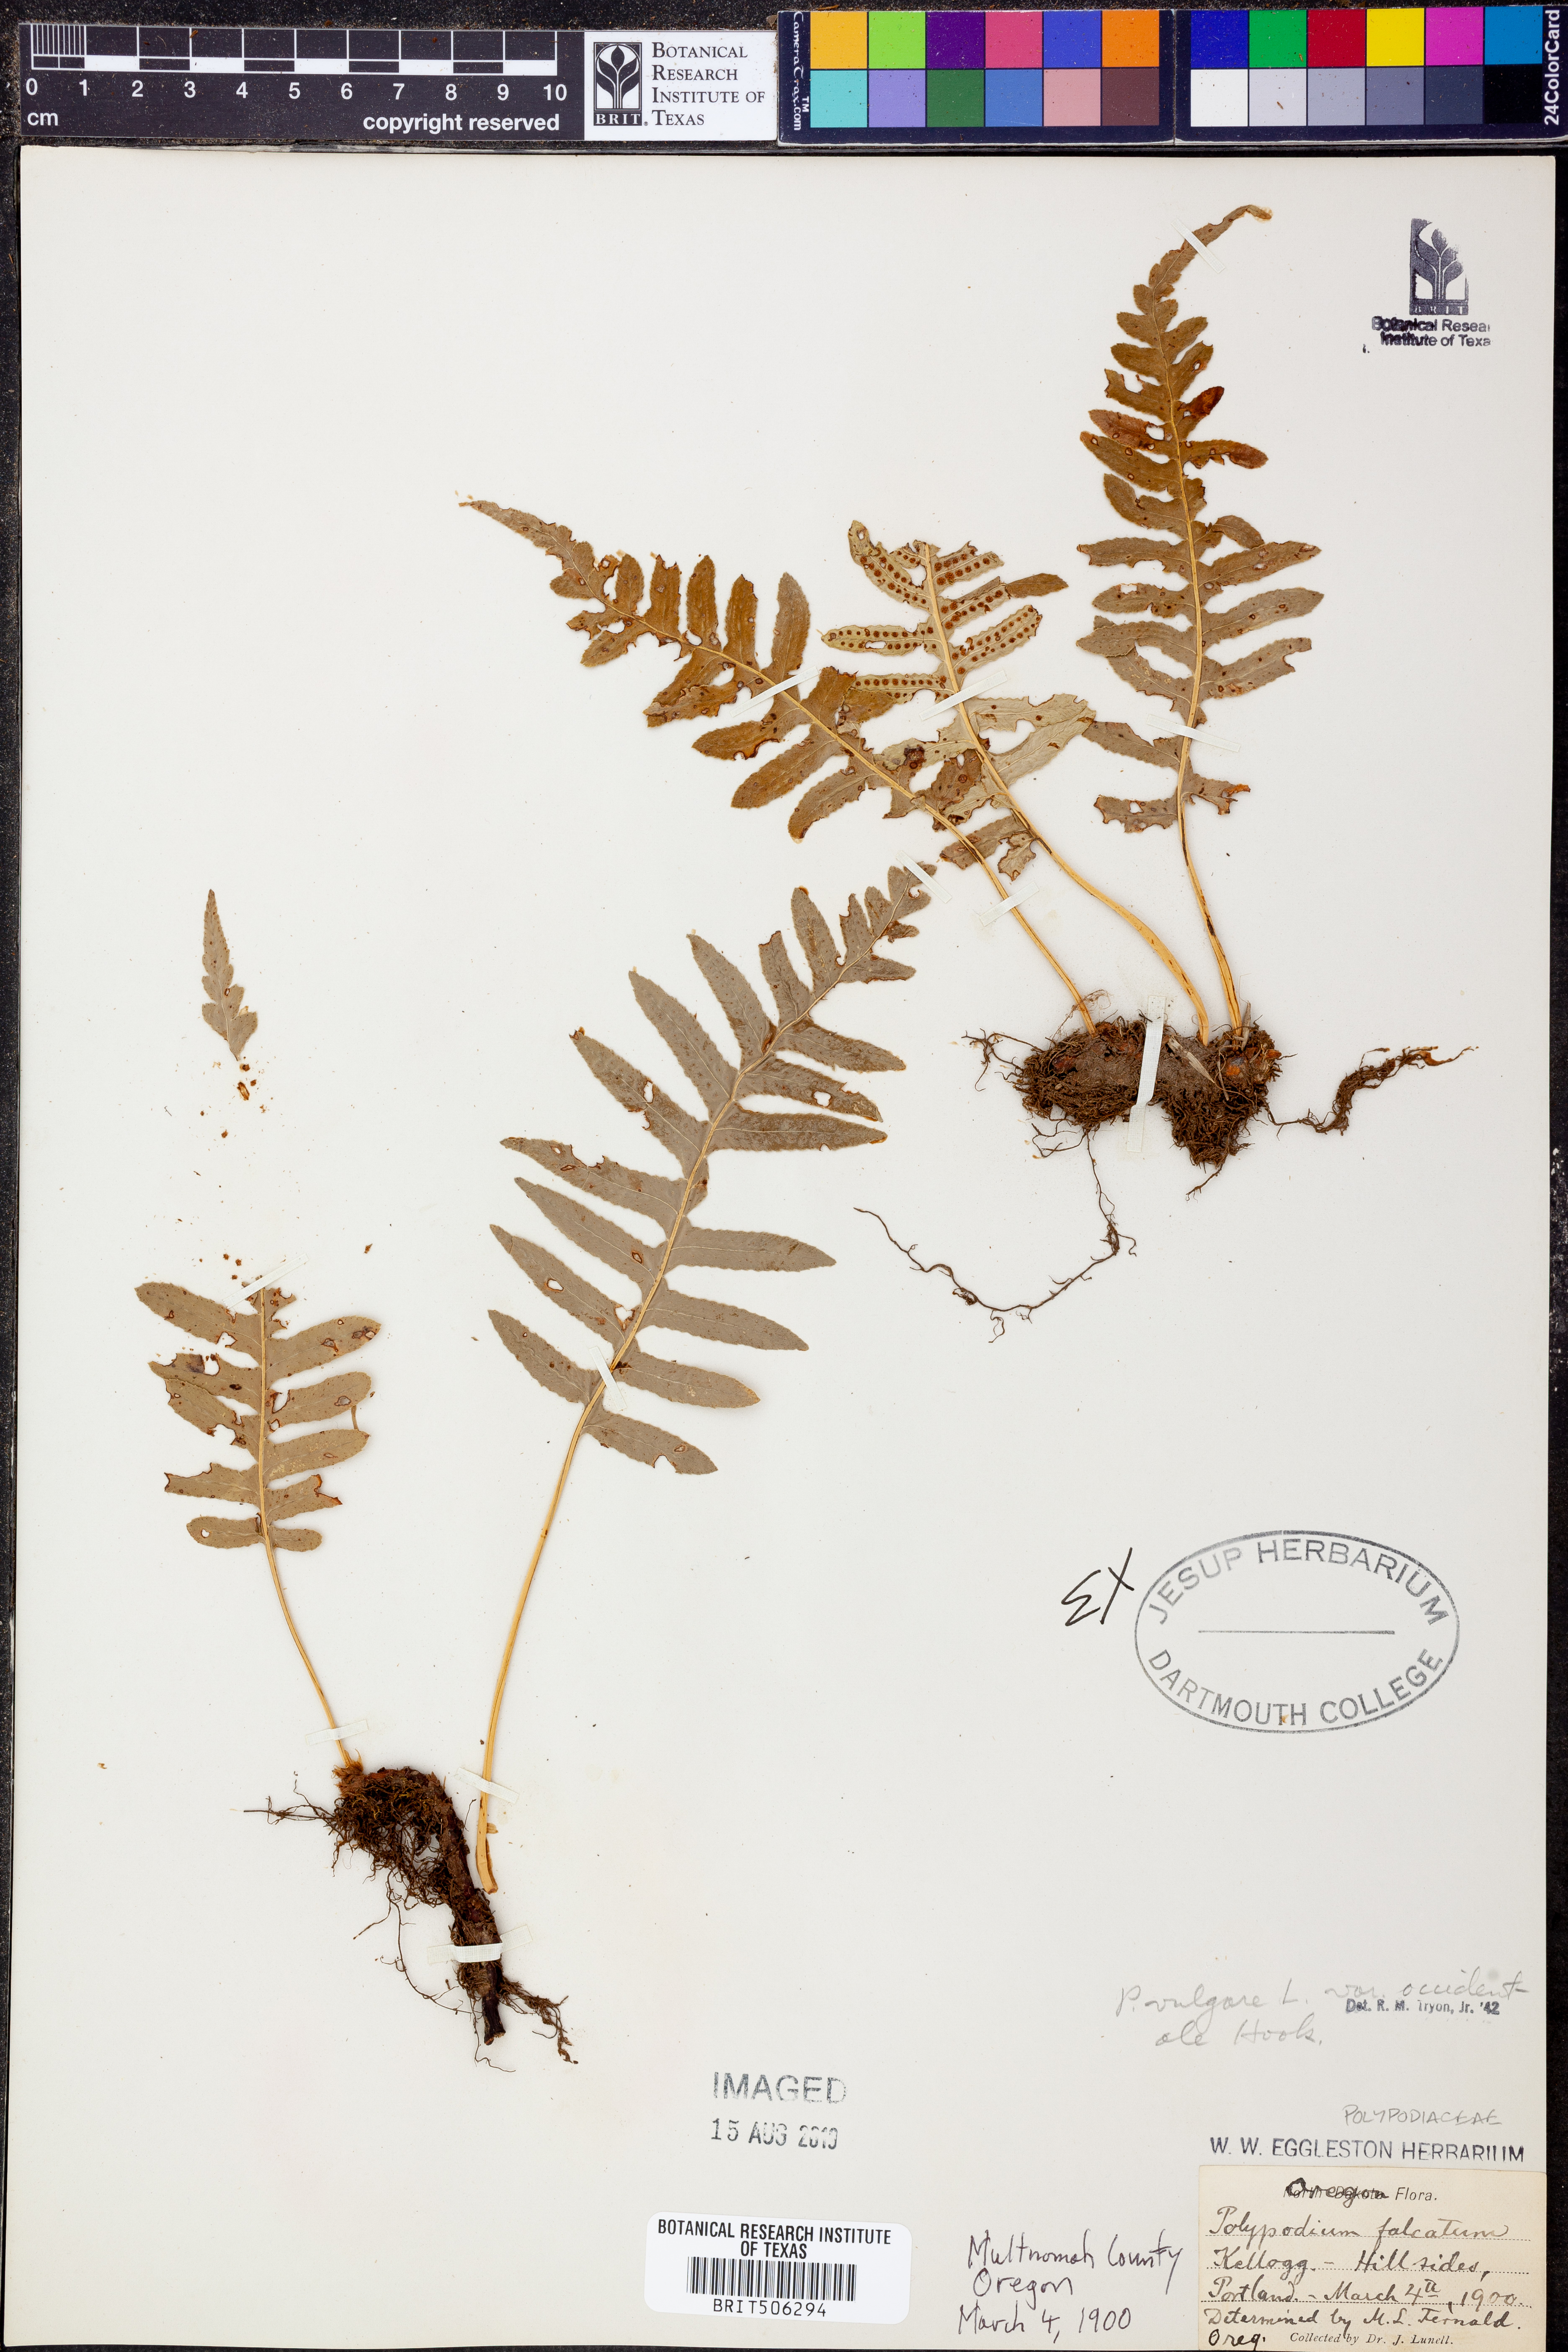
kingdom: Plantae
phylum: Tracheophyta
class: Polypodiopsida
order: Polypodiales
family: Polypodiaceae
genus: Polypodium
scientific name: Polypodium glycyrrhiza
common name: Licorice fern
